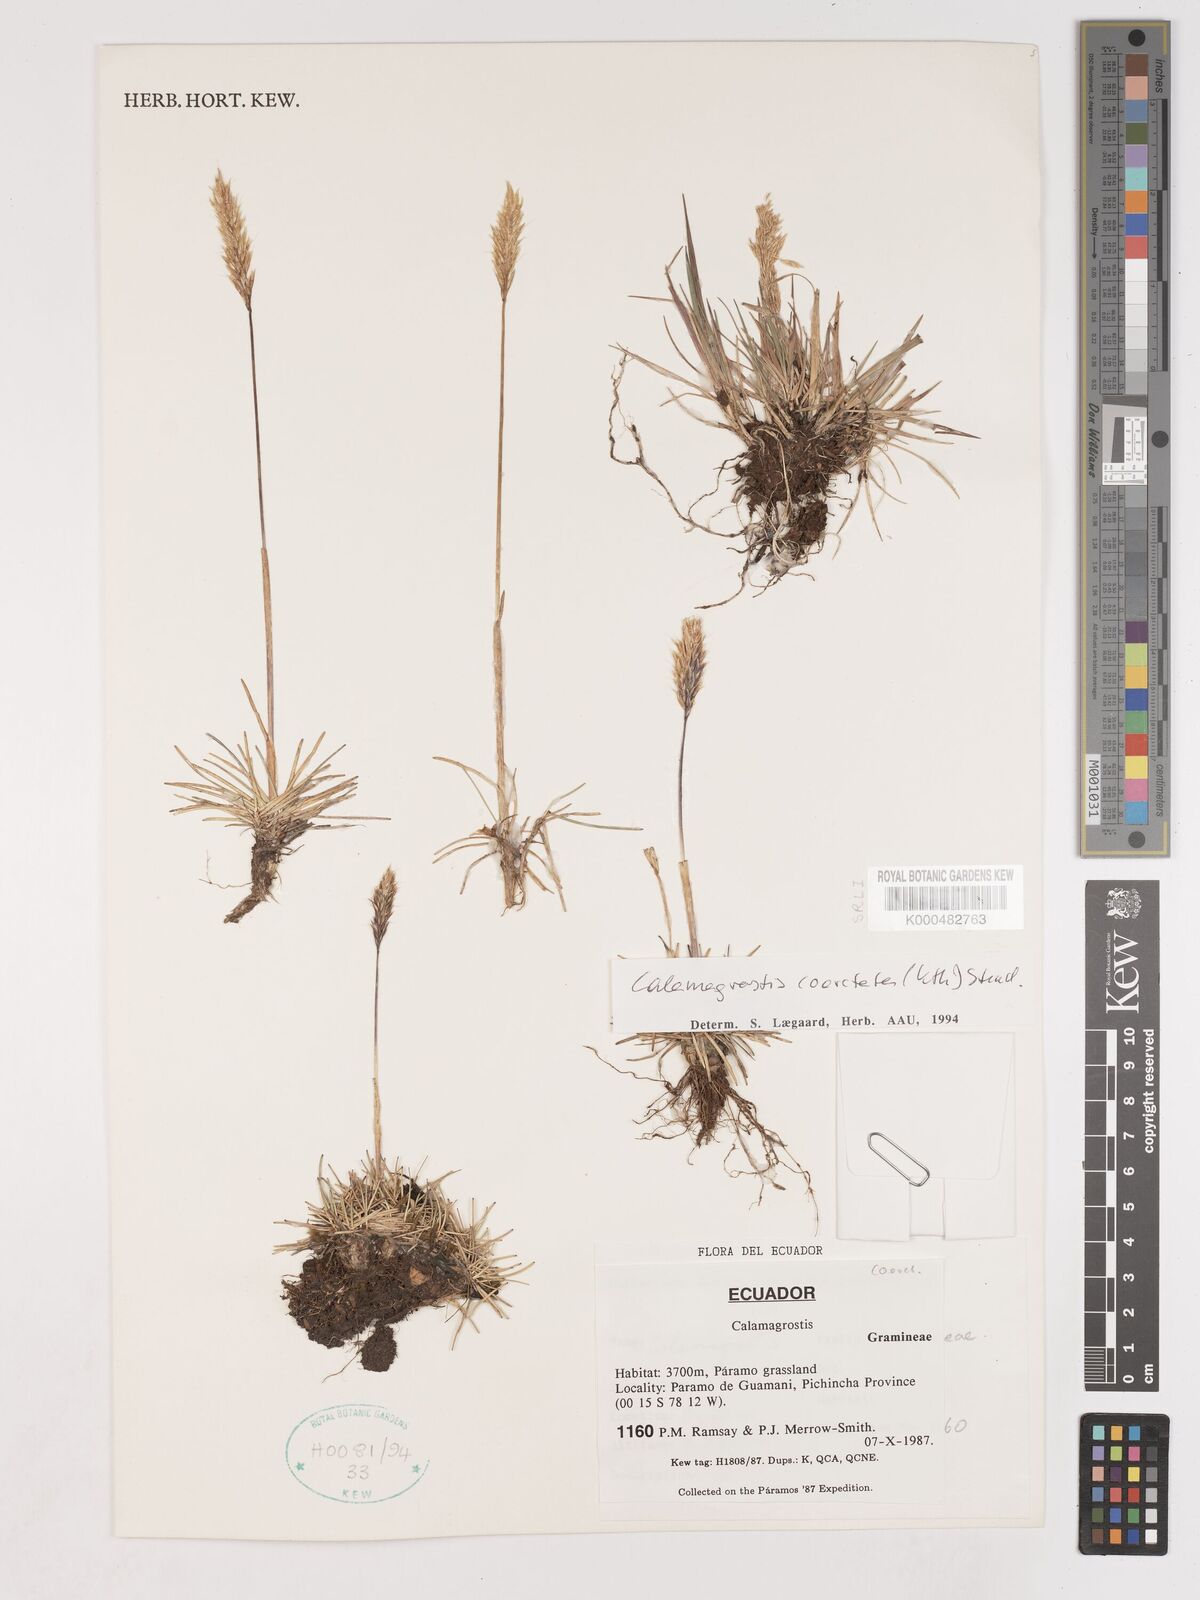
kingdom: Plantae
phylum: Tracheophyta
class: Liliopsida
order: Poales
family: Poaceae
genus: Cinnagrostis
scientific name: Cinnagrostis coarctata
